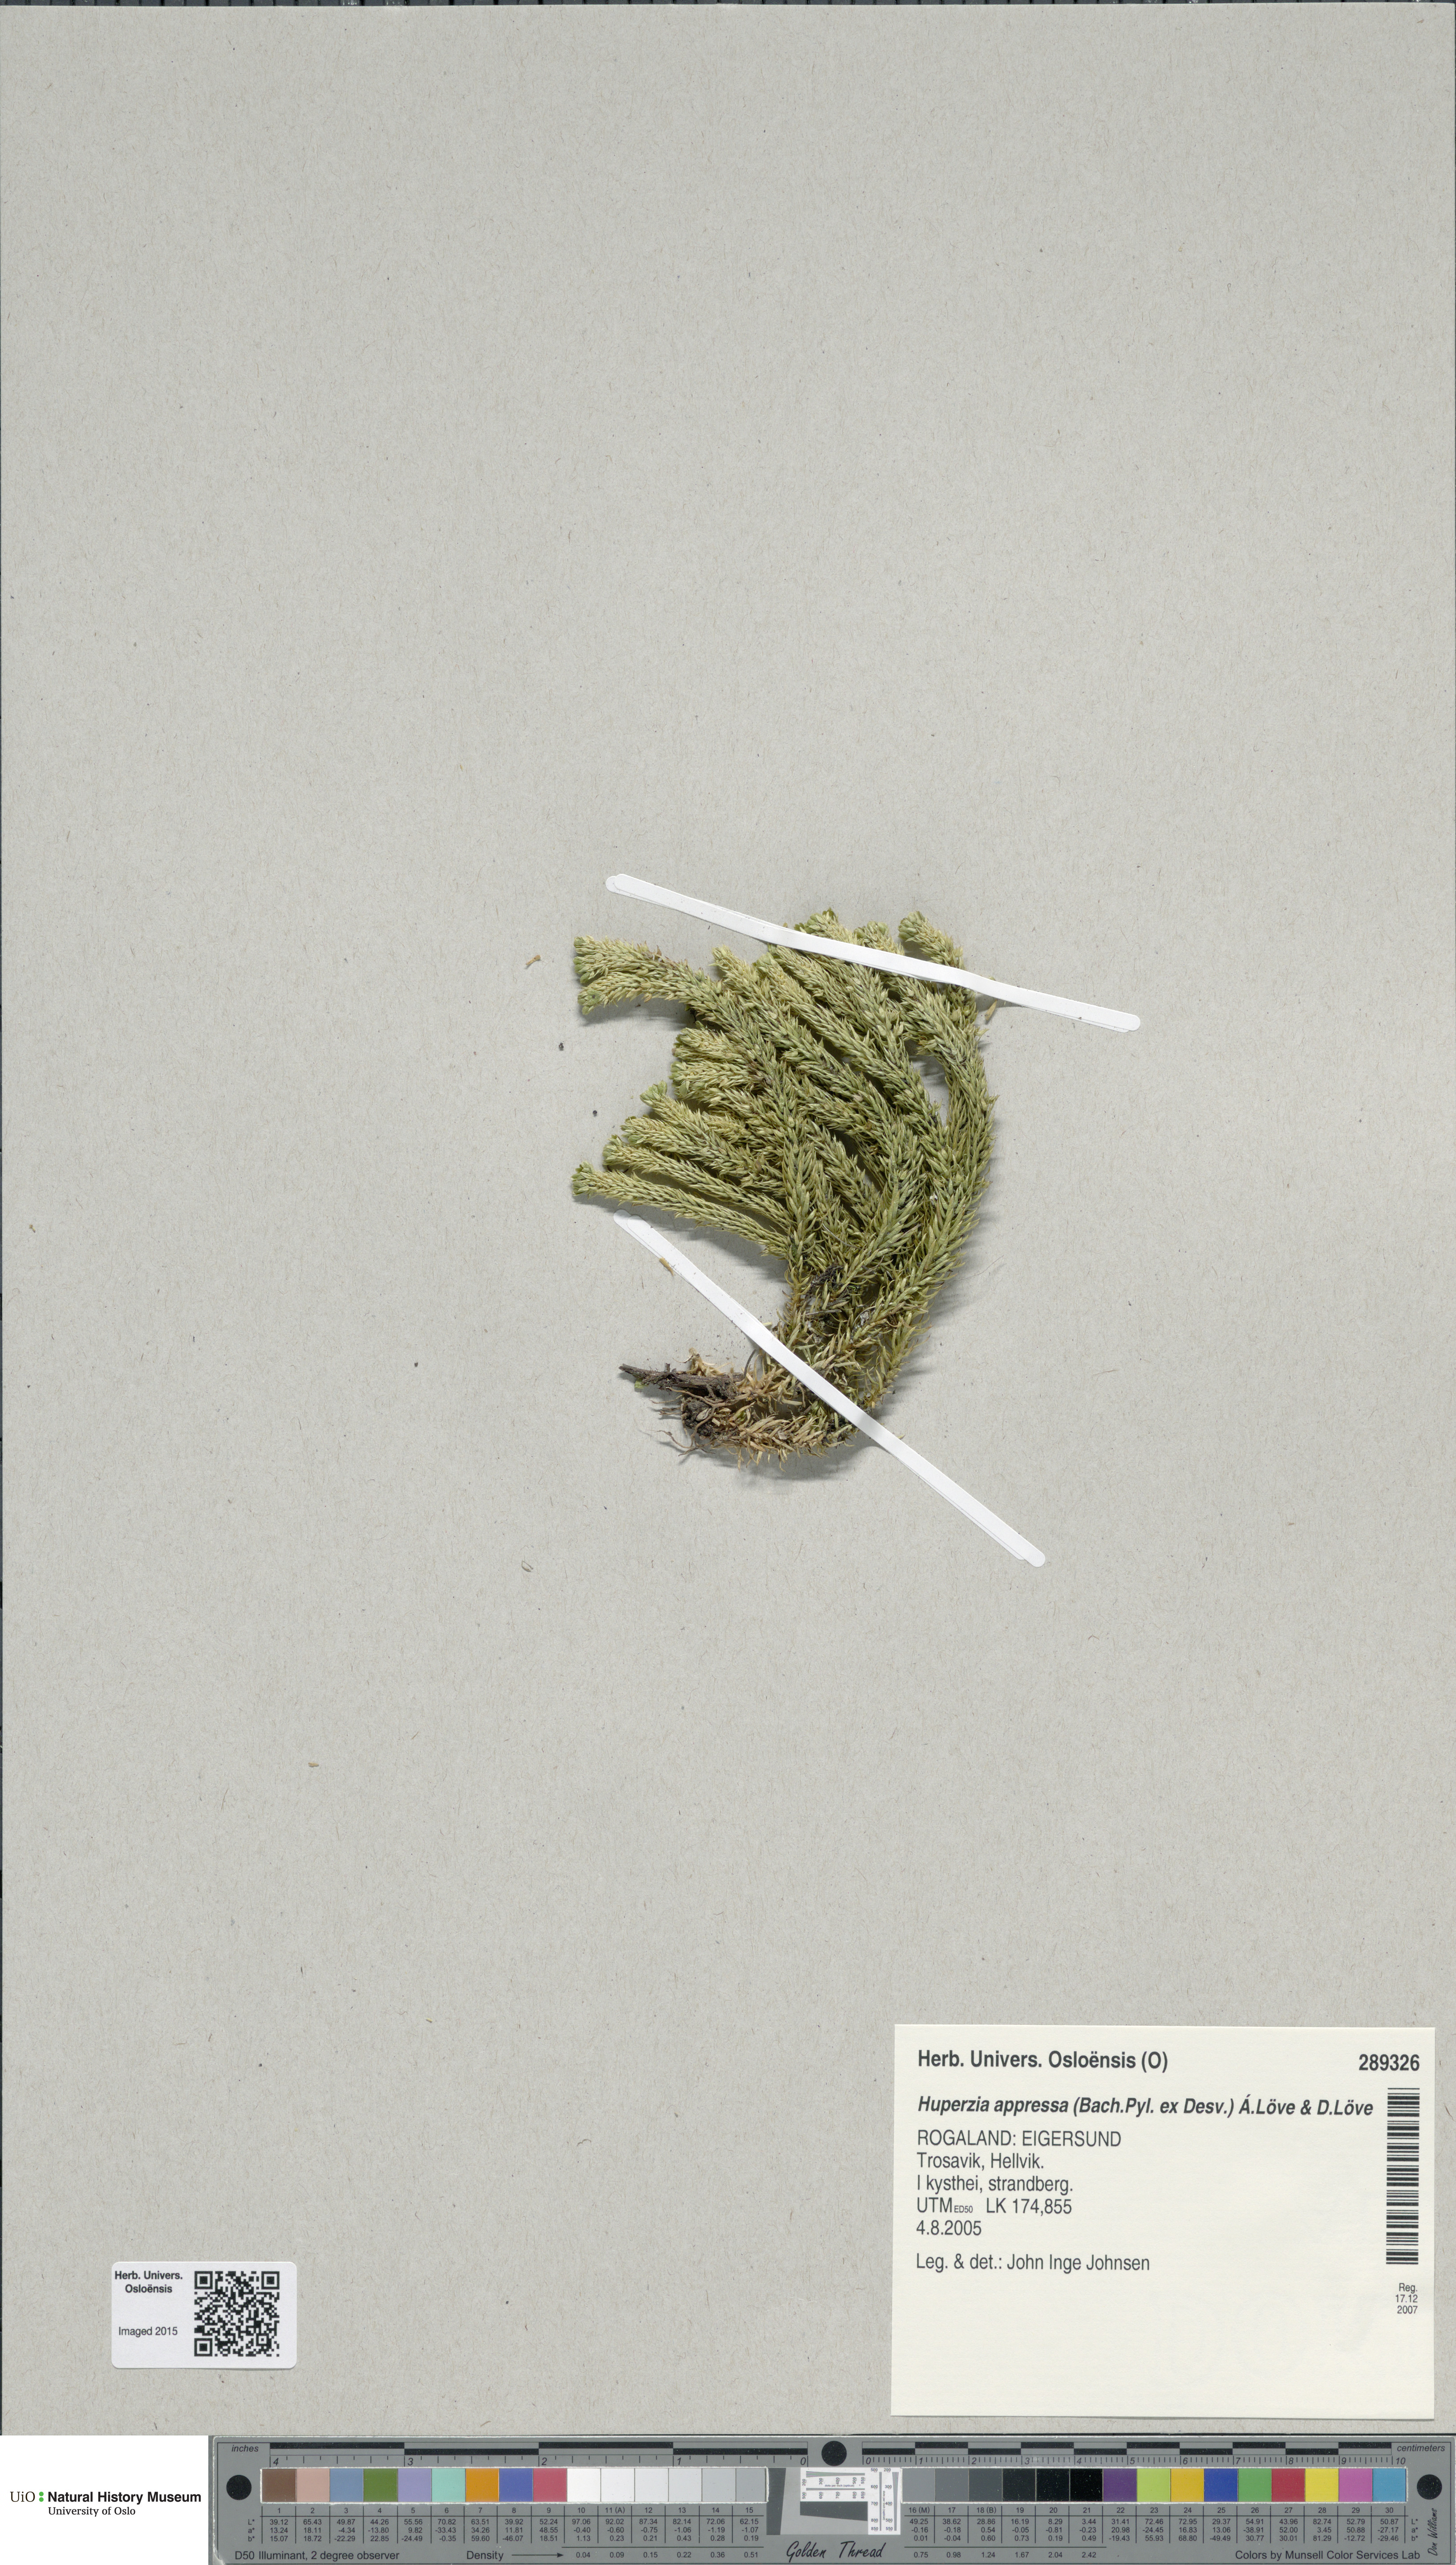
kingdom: Plantae
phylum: Tracheophyta
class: Lycopodiopsida
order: Lycopodiales
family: Lycopodiaceae
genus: Huperzia
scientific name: Huperzia selago
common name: Northern firmoss
